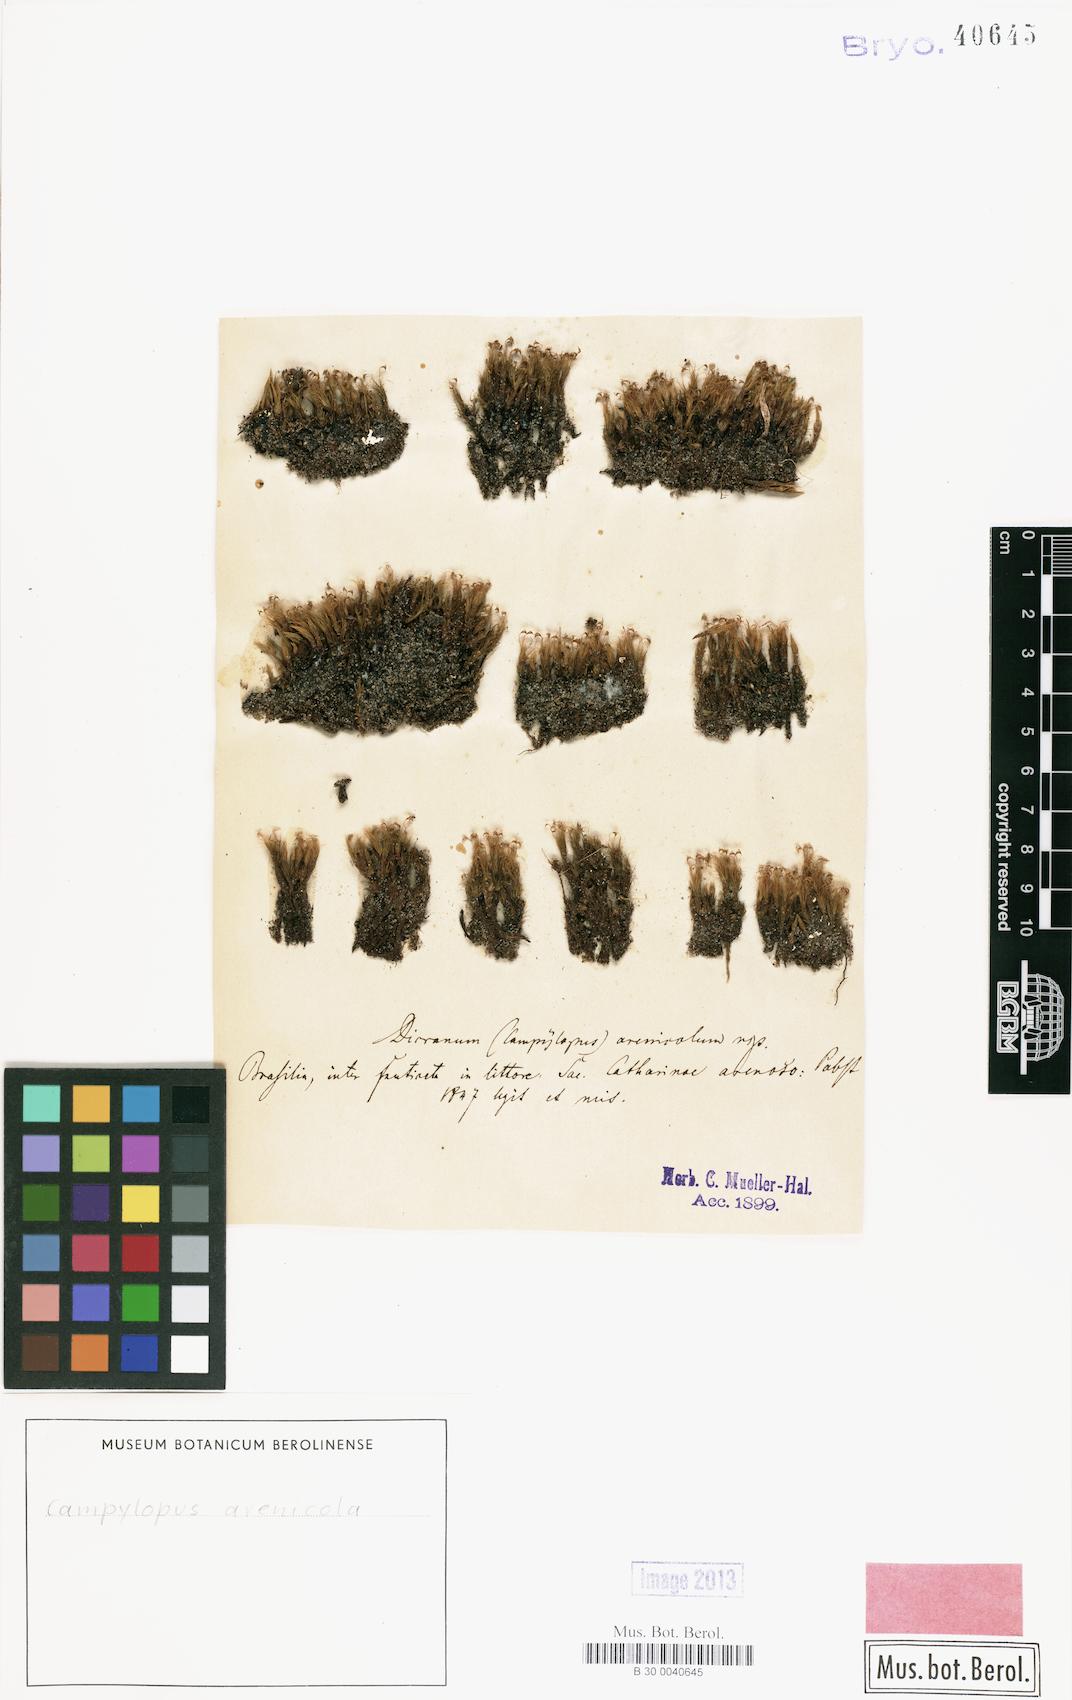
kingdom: Plantae
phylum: Bryophyta
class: Bryopsida
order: Dicranales
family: Leucobryaceae
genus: Campylopus
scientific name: Campylopus trachyblepharon
